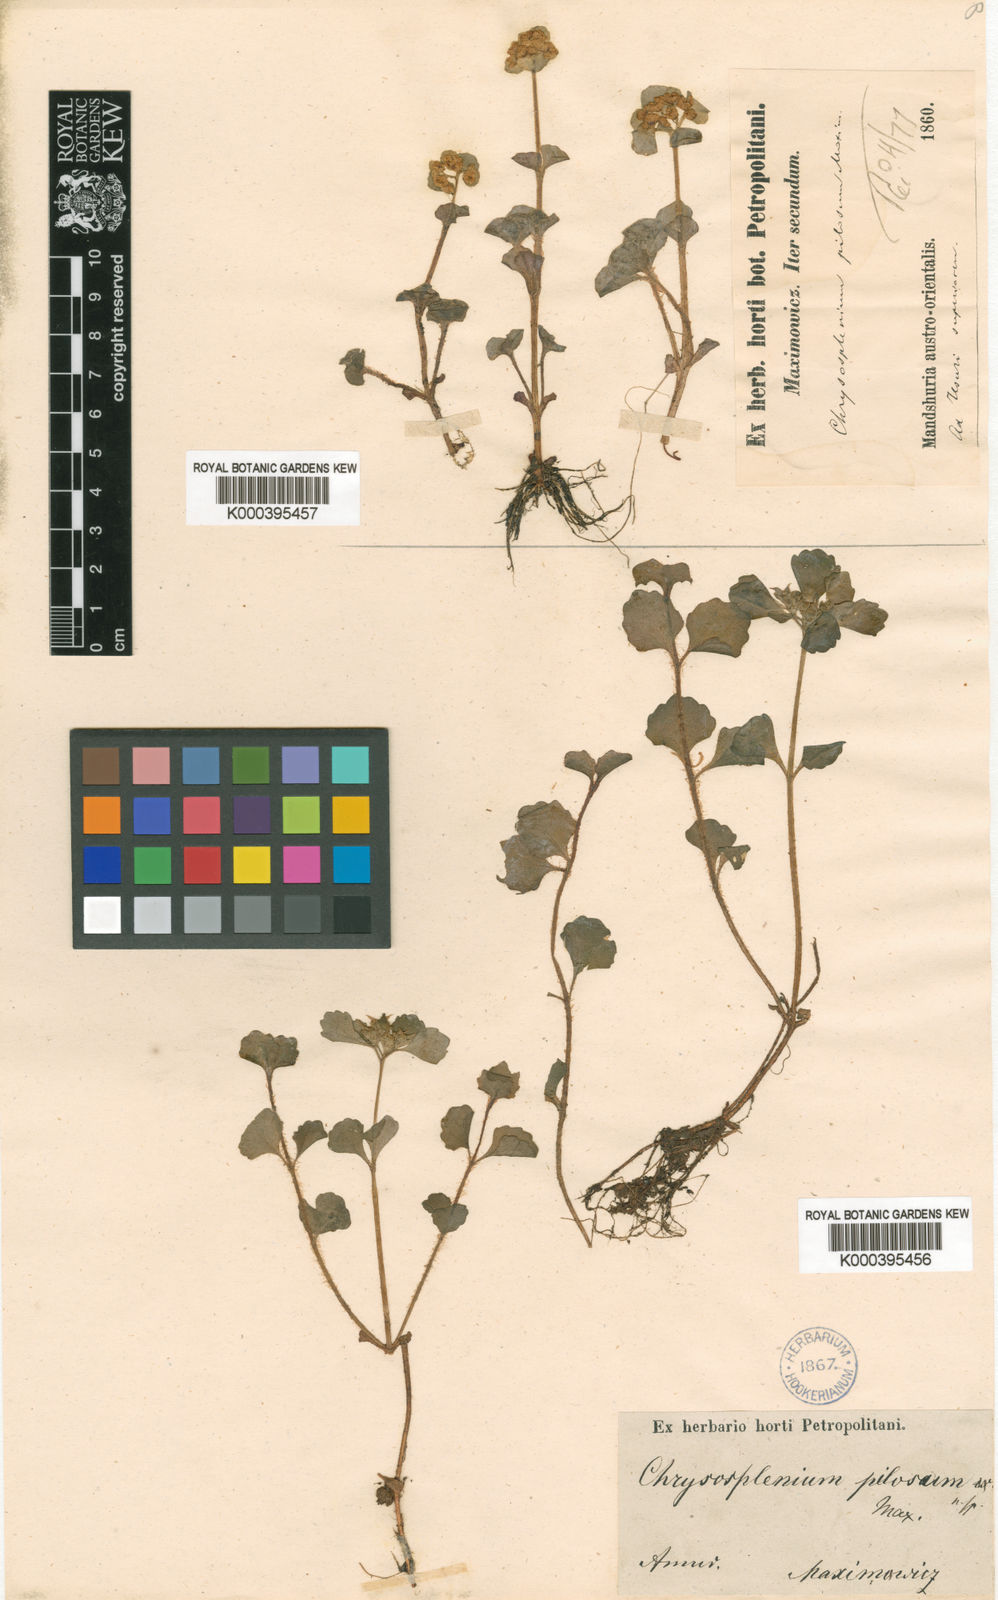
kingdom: Plantae
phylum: Tracheophyta
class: Magnoliopsida
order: Saxifragales
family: Saxifragaceae
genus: Chrysosplenium
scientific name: Chrysosplenium pilosum
